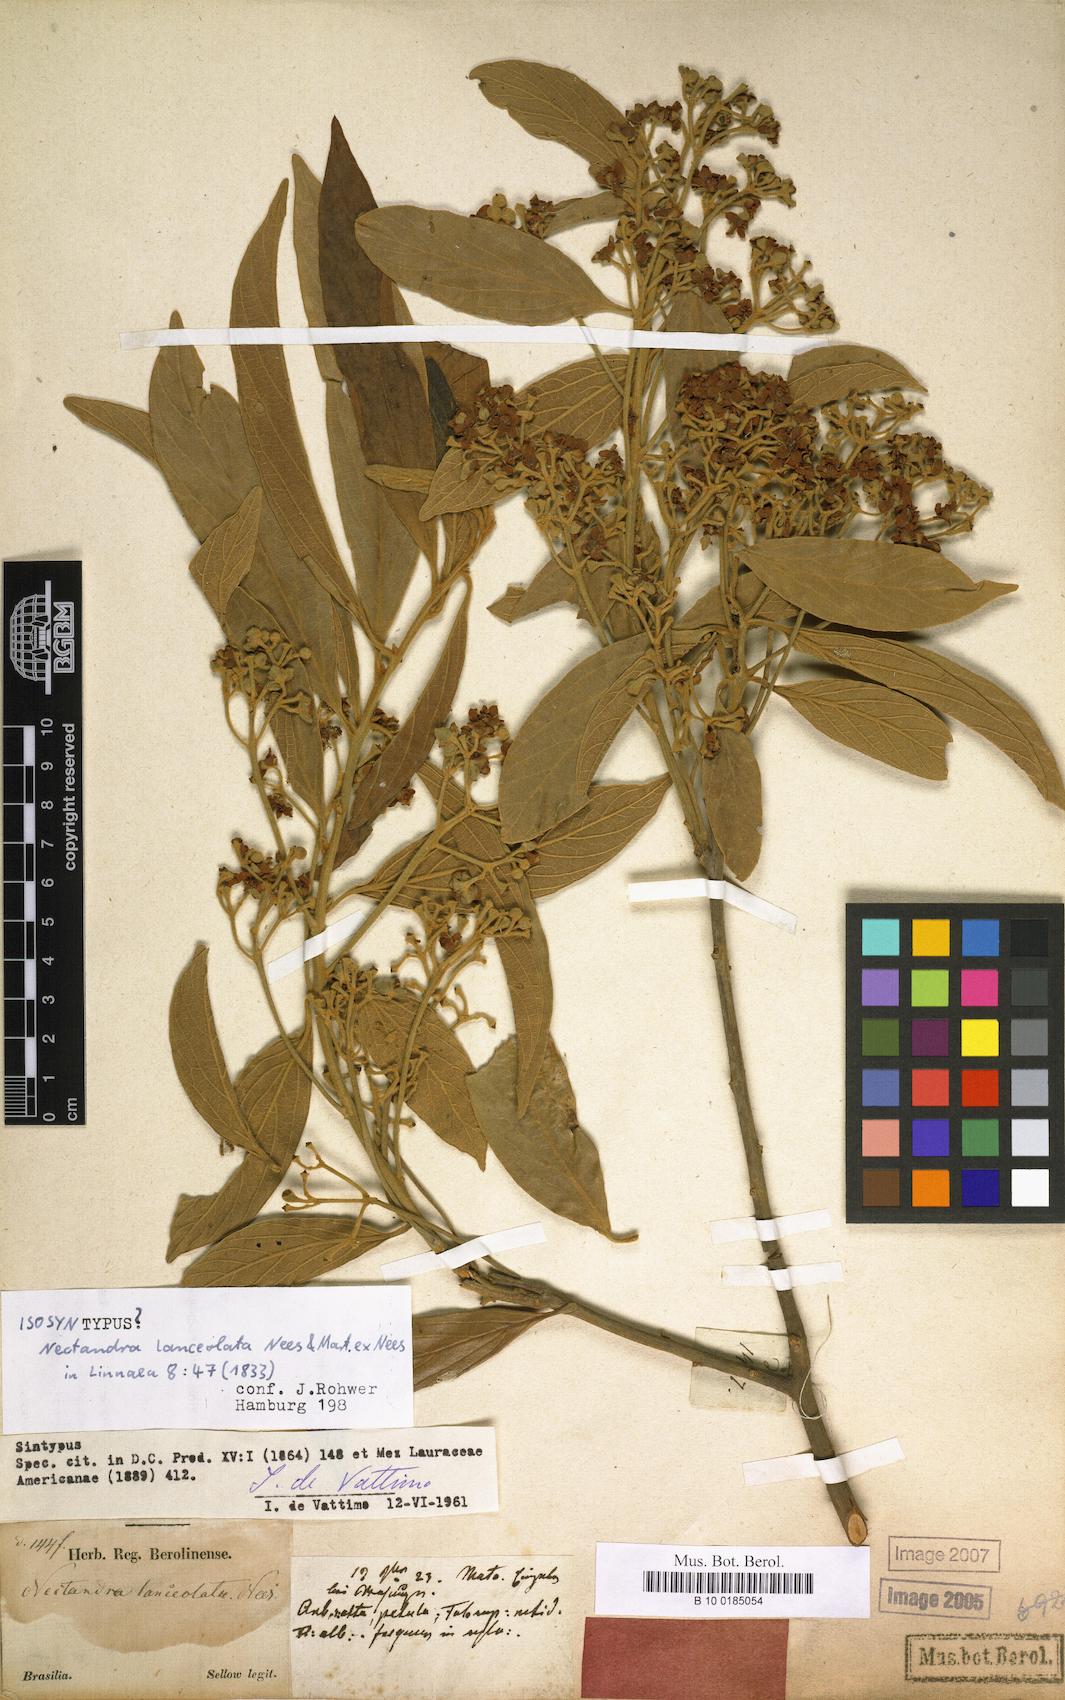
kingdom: Plantae
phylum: Tracheophyta
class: Magnoliopsida
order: Laurales
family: Lauraceae
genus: Nectandra
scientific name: Nectandra lanceolata
